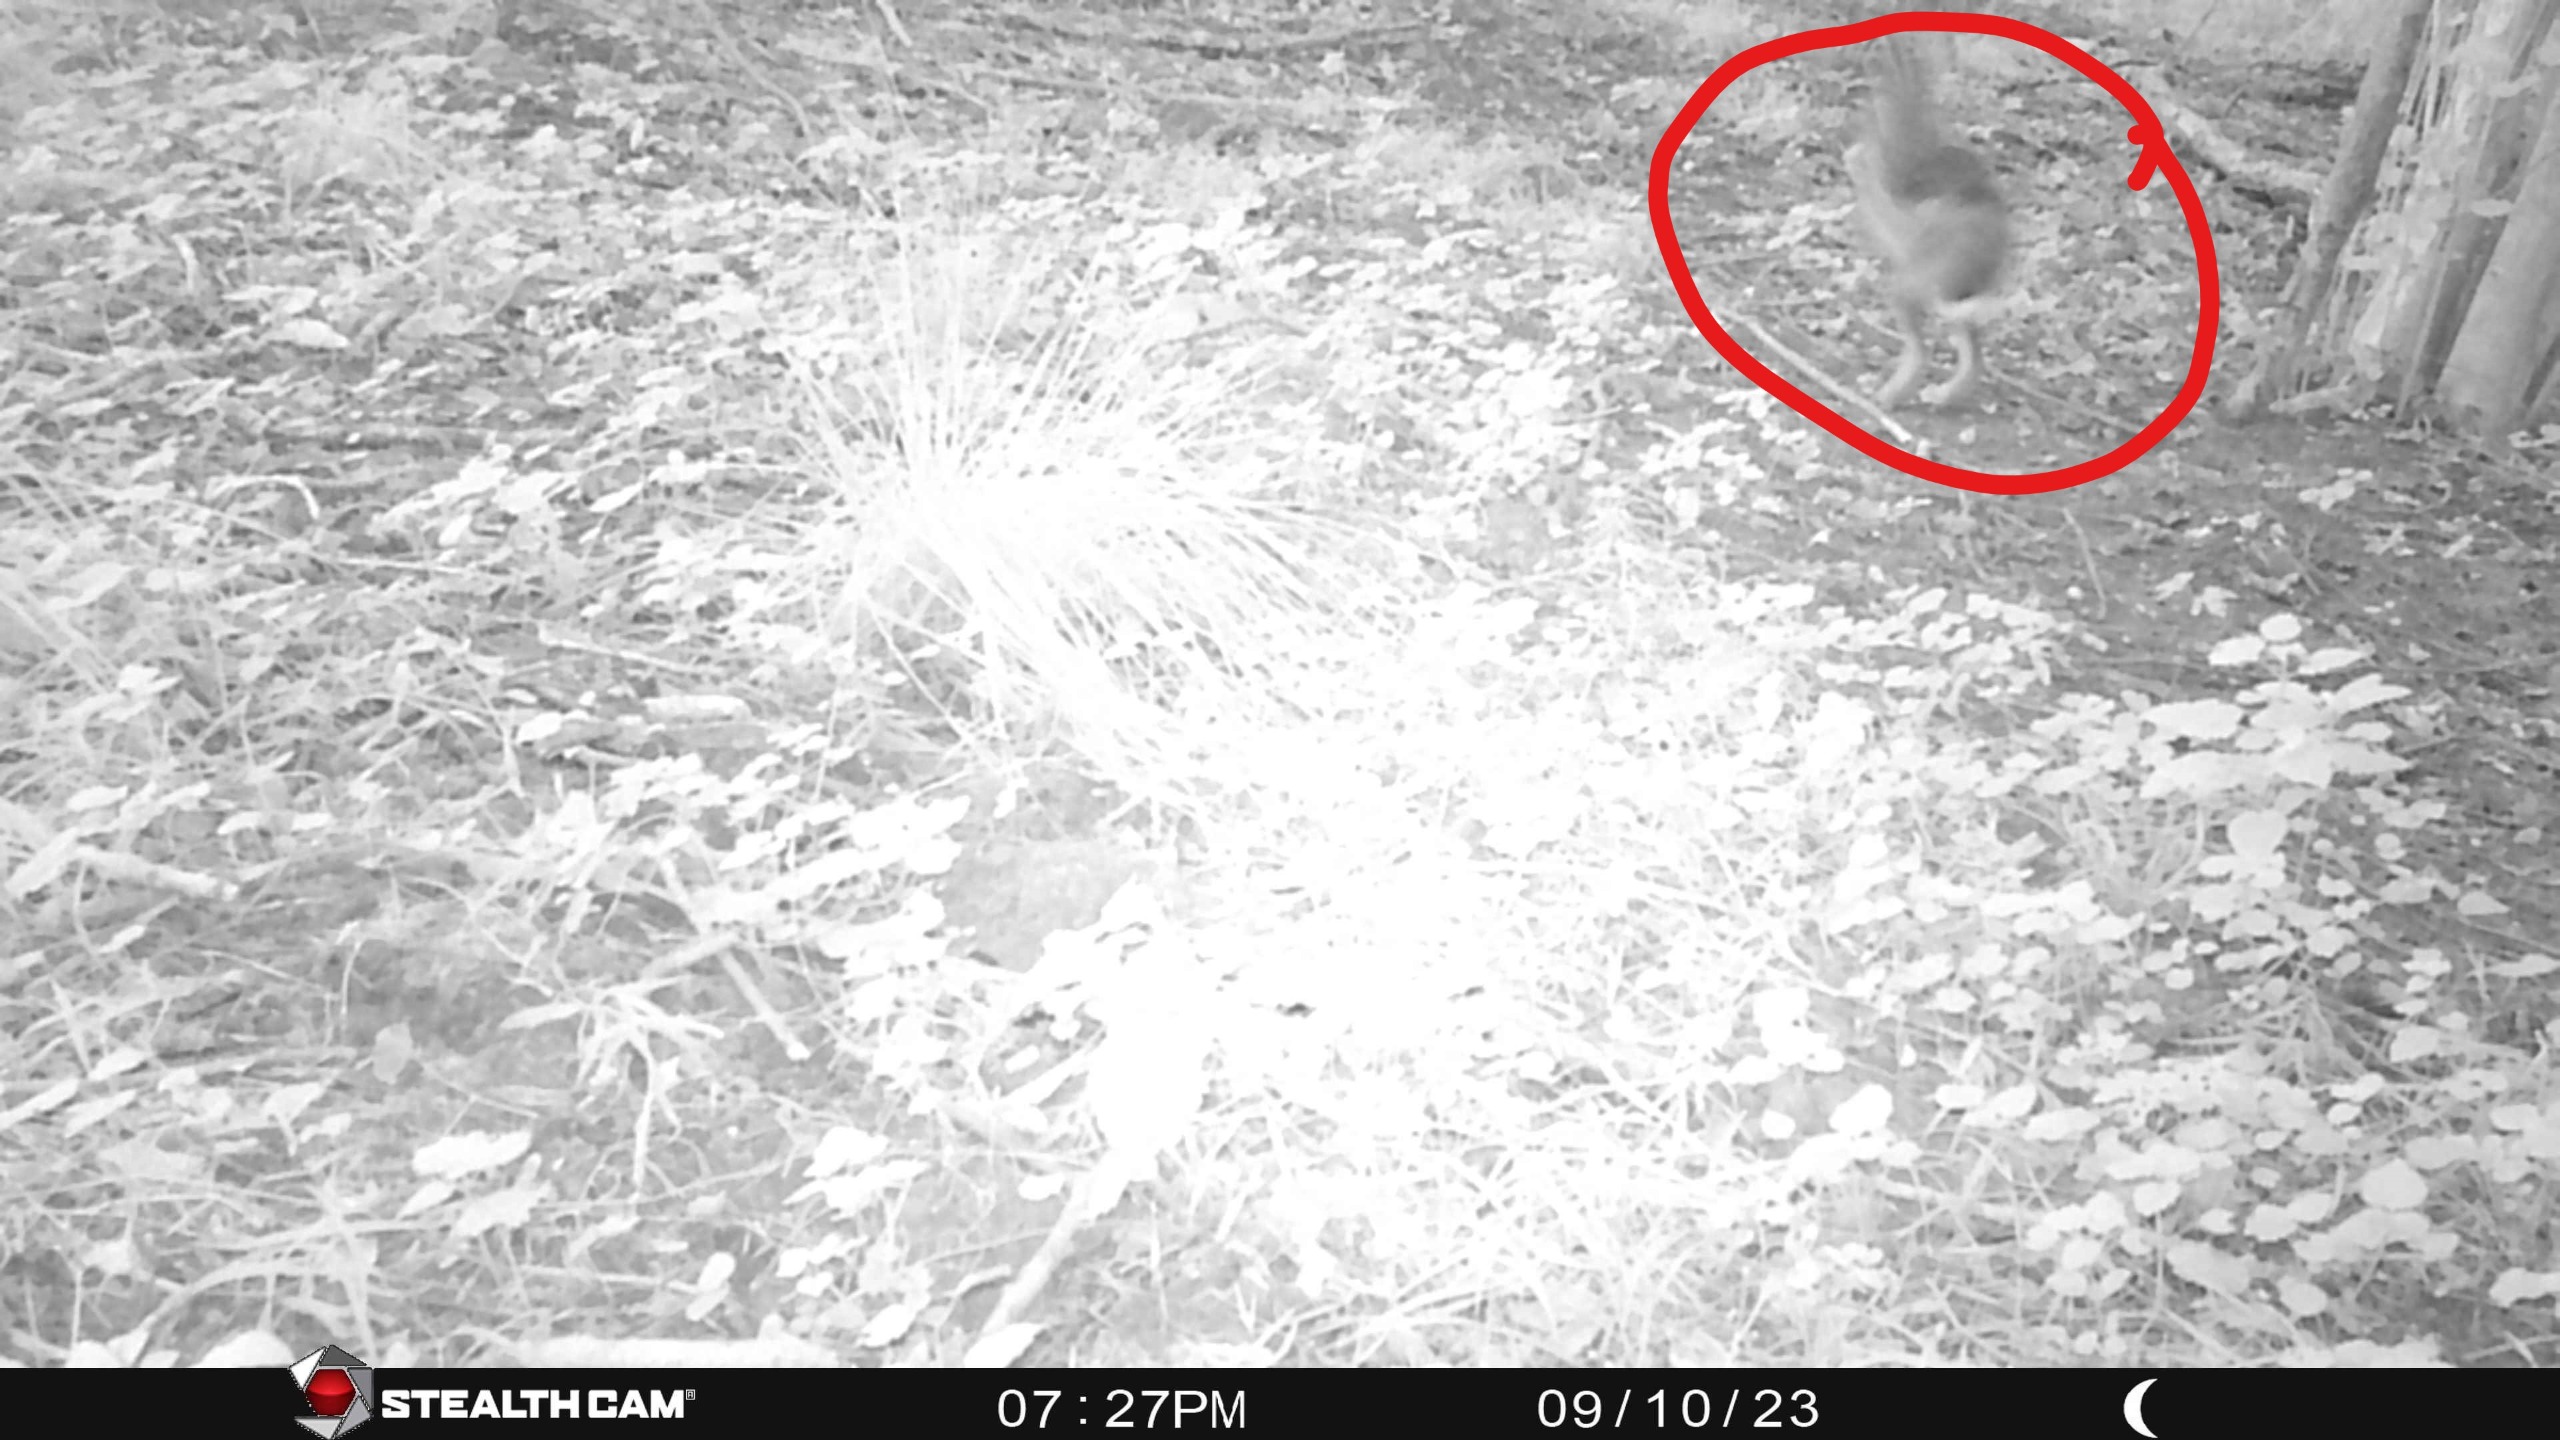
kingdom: Animalia
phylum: Chordata
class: Mammalia
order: Lagomorpha
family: Leporidae
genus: Lepus
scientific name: Lepus europaeus
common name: Hare
